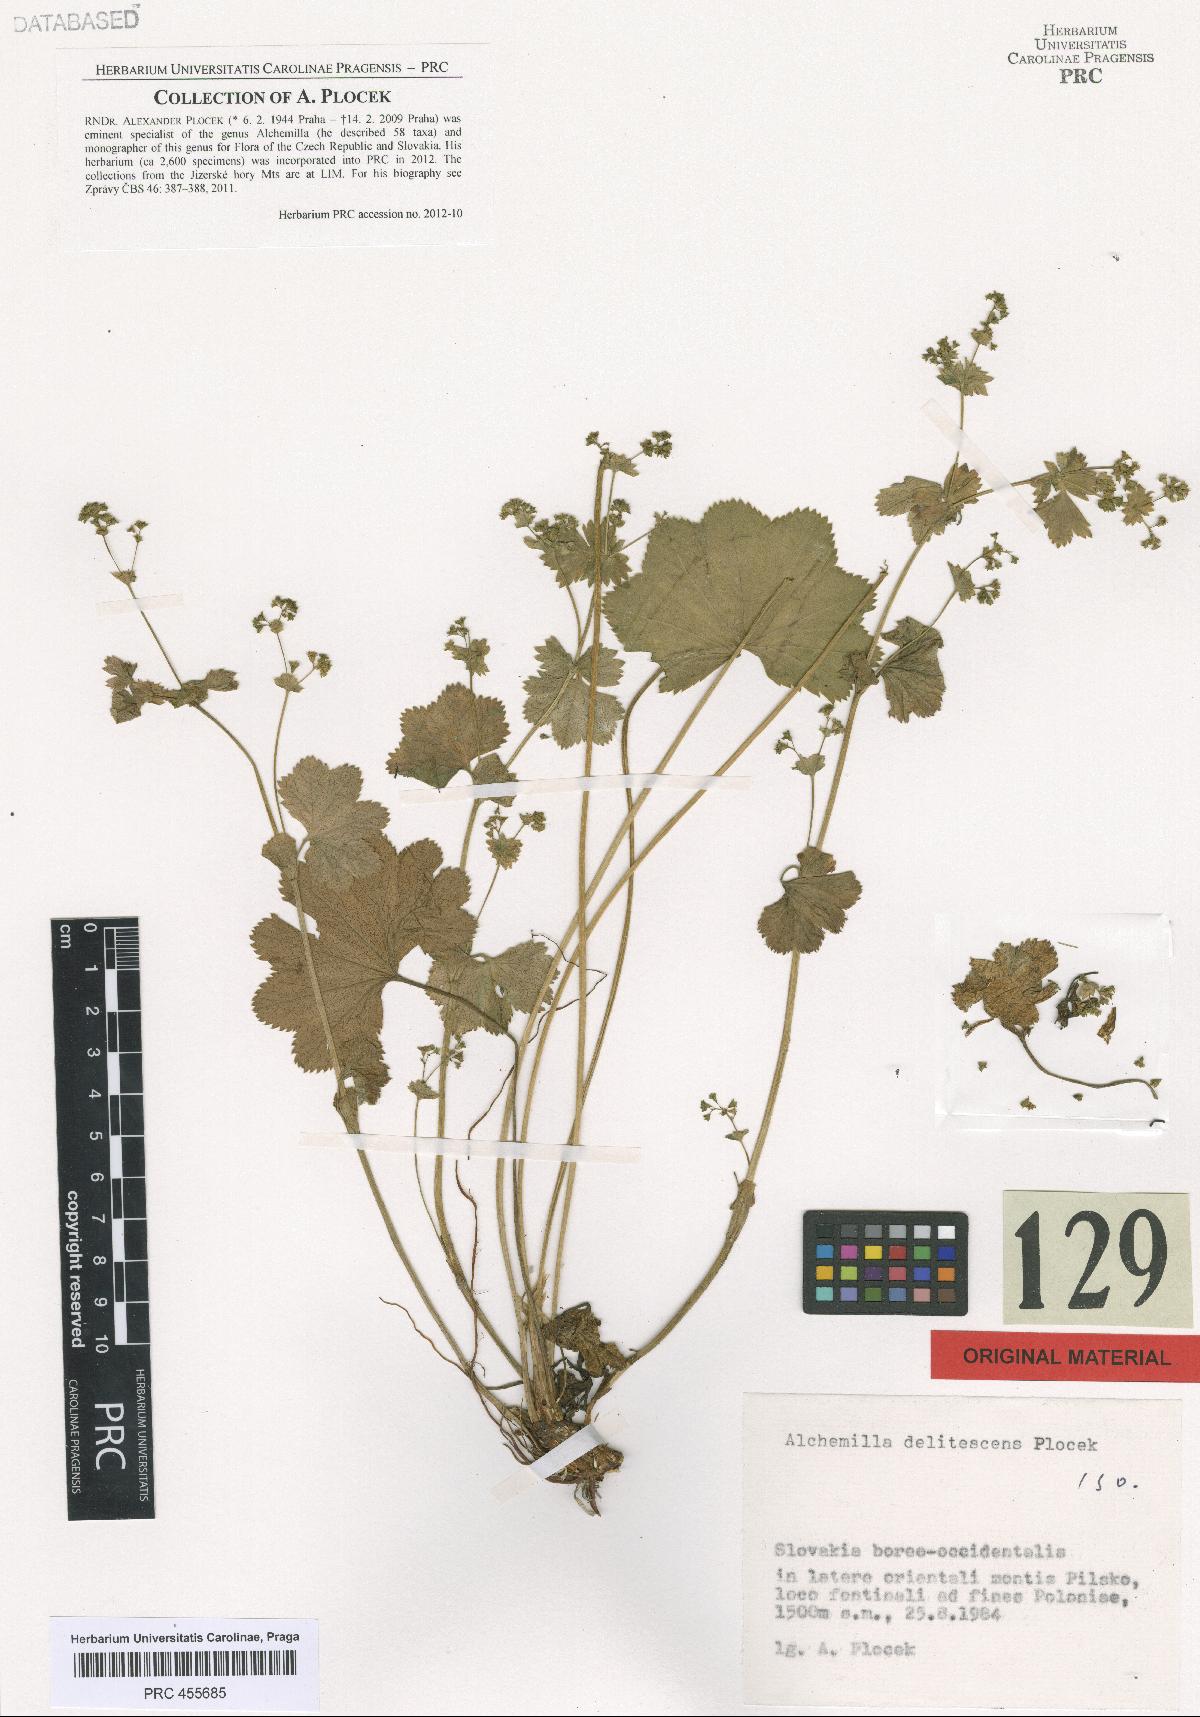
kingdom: Plantae
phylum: Tracheophyta
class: Magnoliopsida
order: Rosales
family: Rosaceae
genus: Alchemilla
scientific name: Alchemilla delitescens
